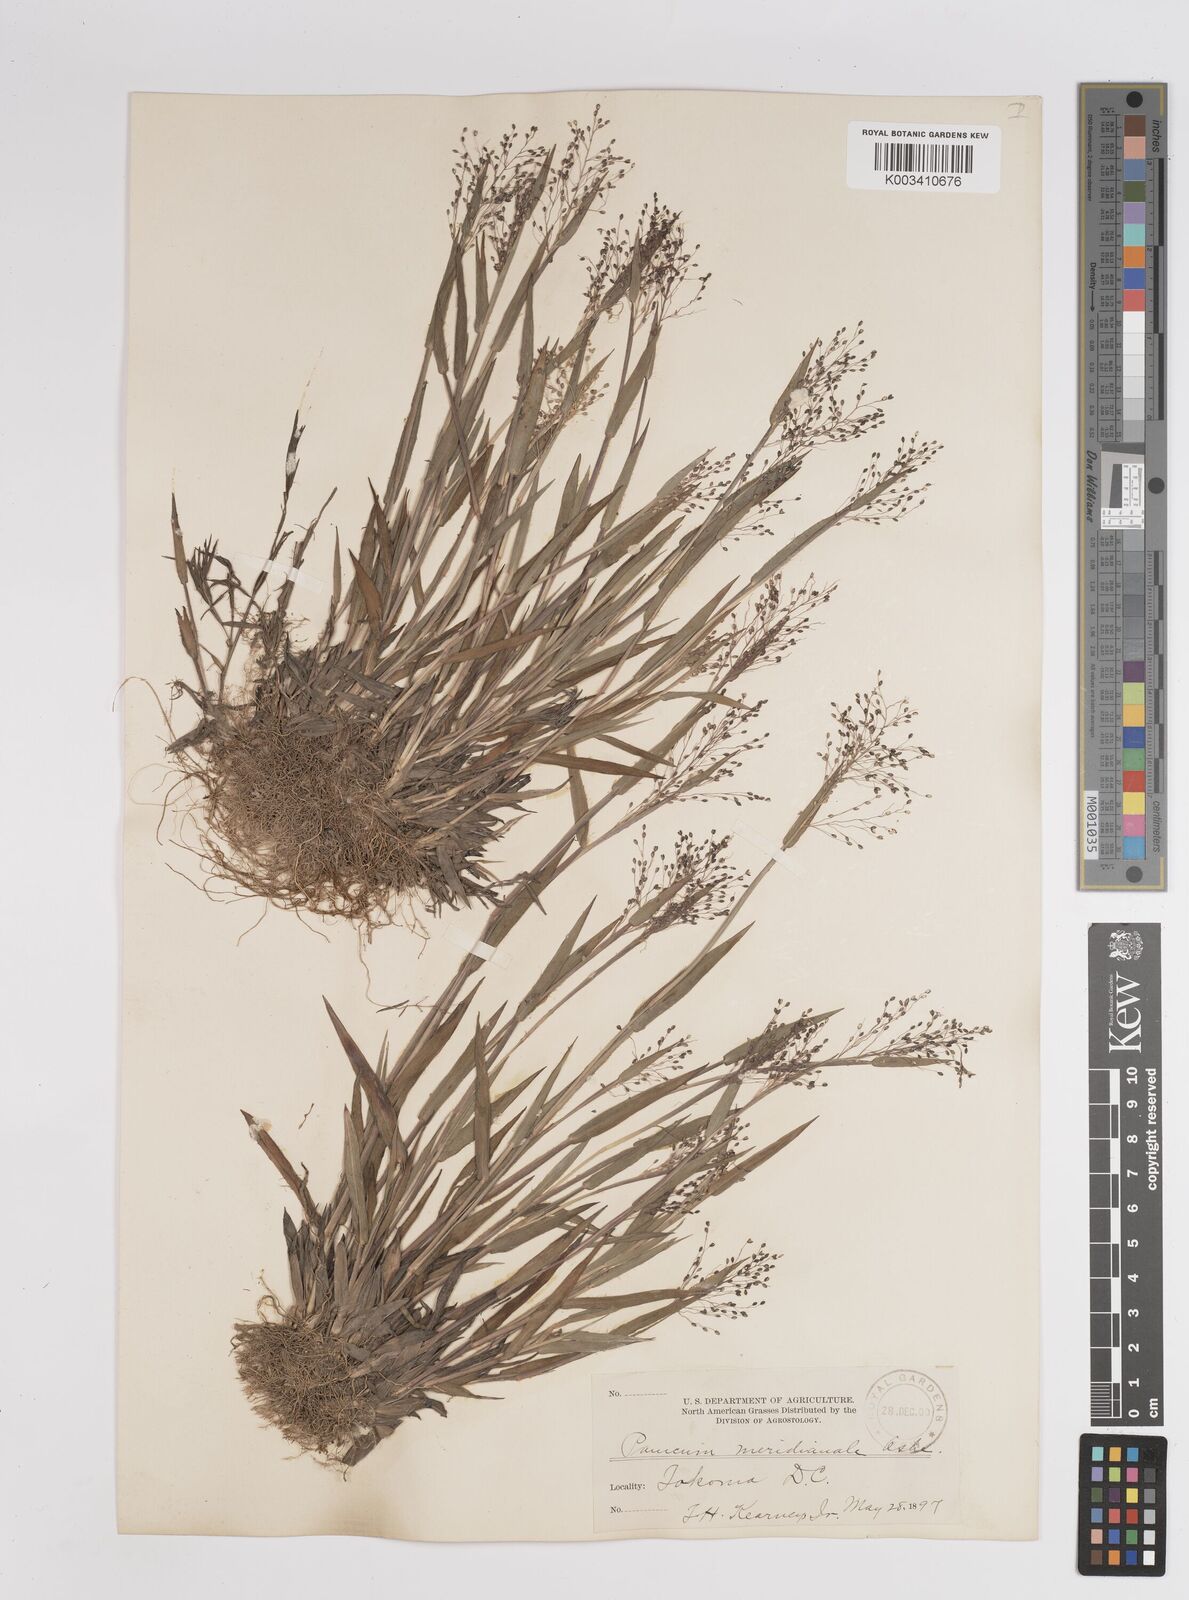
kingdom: Plantae
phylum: Tracheophyta
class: Liliopsida
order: Poales
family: Poaceae
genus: Dichanthelium
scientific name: Dichanthelium meridionale
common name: Mat panicgrass
